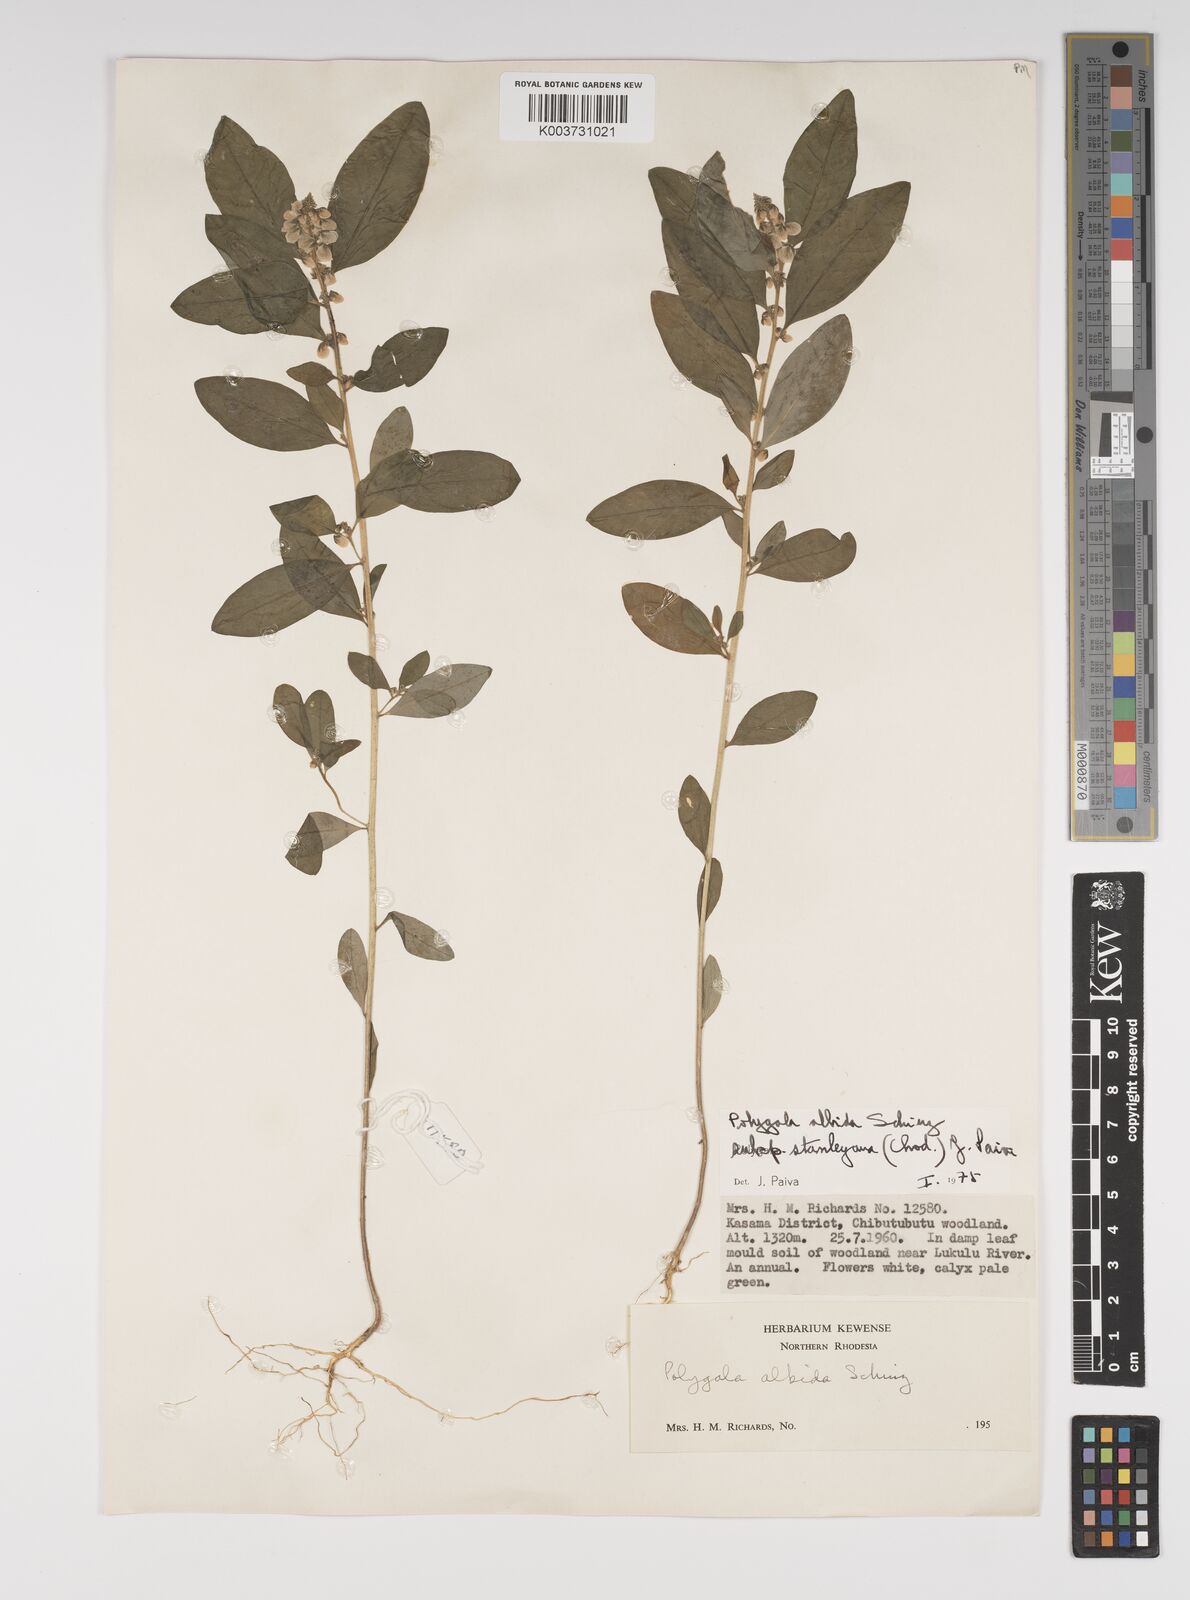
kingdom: Plantae
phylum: Tracheophyta
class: Magnoliopsida
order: Fabales
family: Polygalaceae
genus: Polygala
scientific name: Polygala albida
